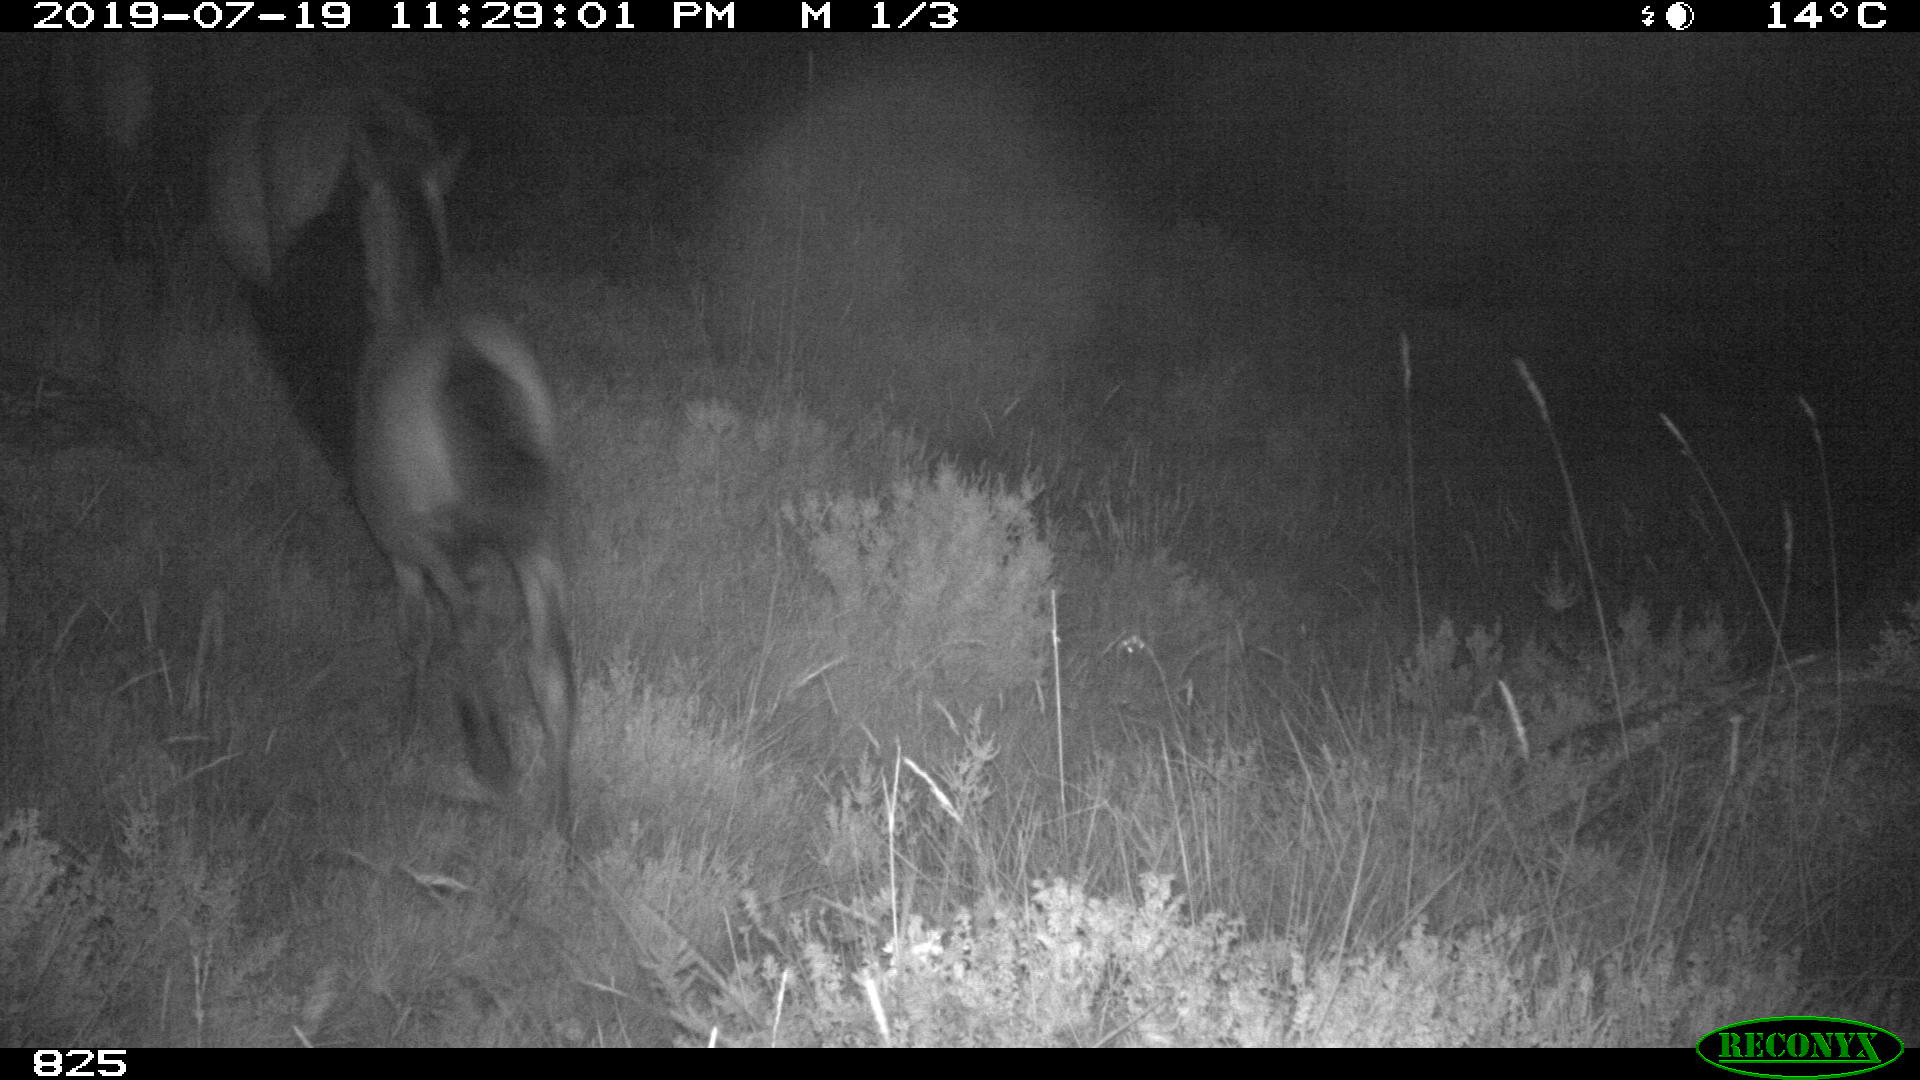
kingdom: Animalia
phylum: Chordata
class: Mammalia
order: Perissodactyla
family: Equidae
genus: Equus
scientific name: Equus caballus
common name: Horse
